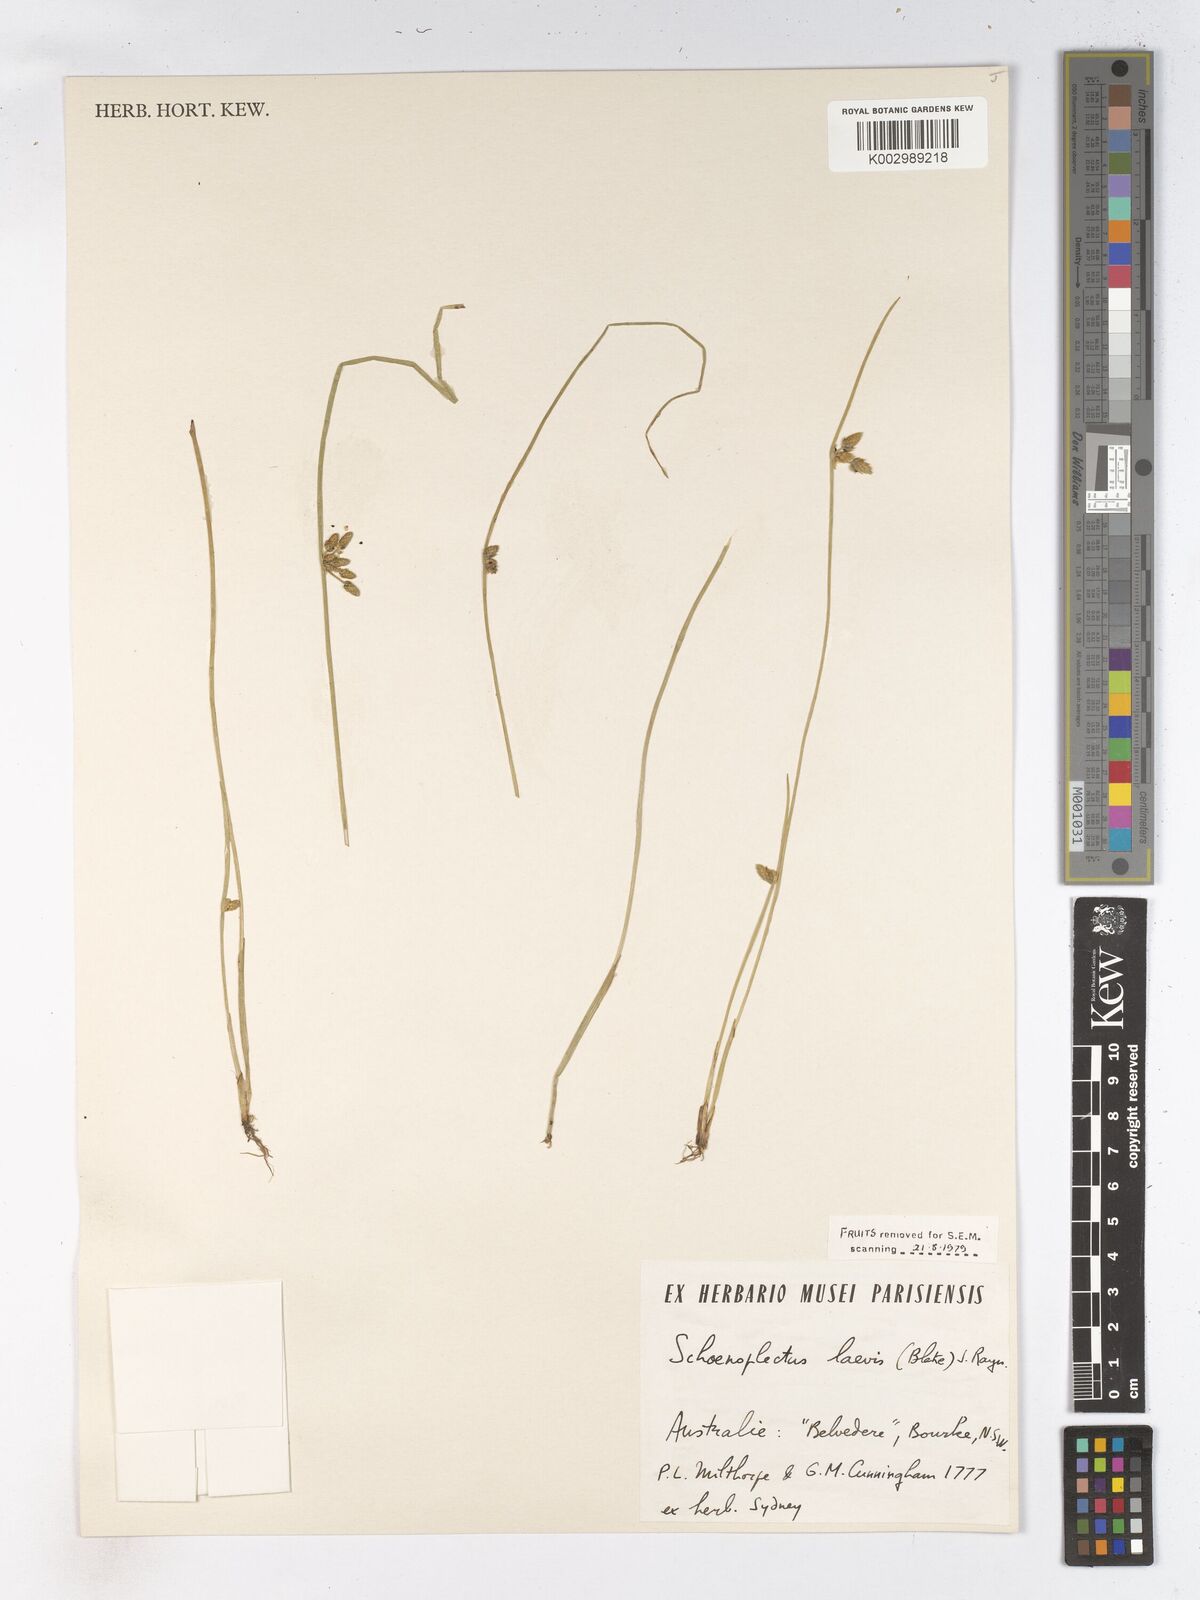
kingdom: Plantae
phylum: Tracheophyta
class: Liliopsida
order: Poales
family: Cyperaceae
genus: Schoenoplectiella
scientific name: Schoenoplectiella laevis
